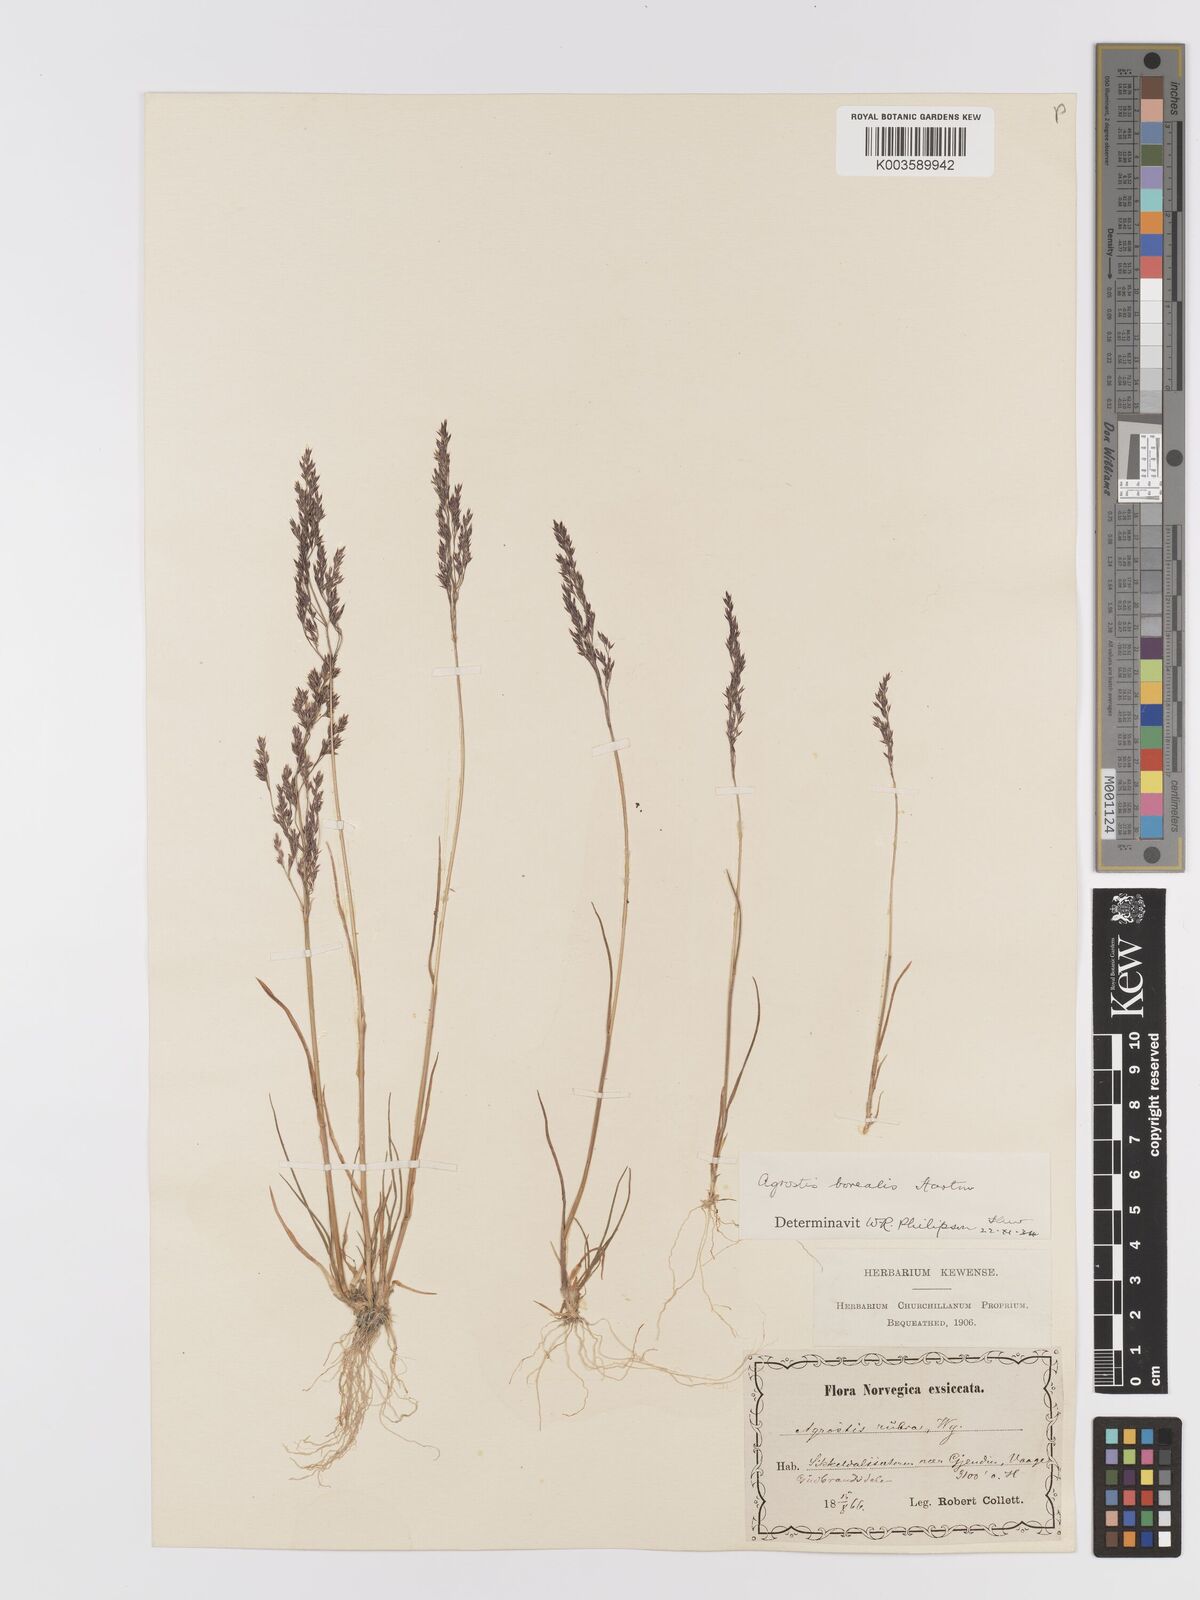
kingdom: Plantae
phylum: Tracheophyta
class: Liliopsida
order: Poales
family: Poaceae
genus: Agrostis
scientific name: Agrostis mertensii
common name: Northern bent
